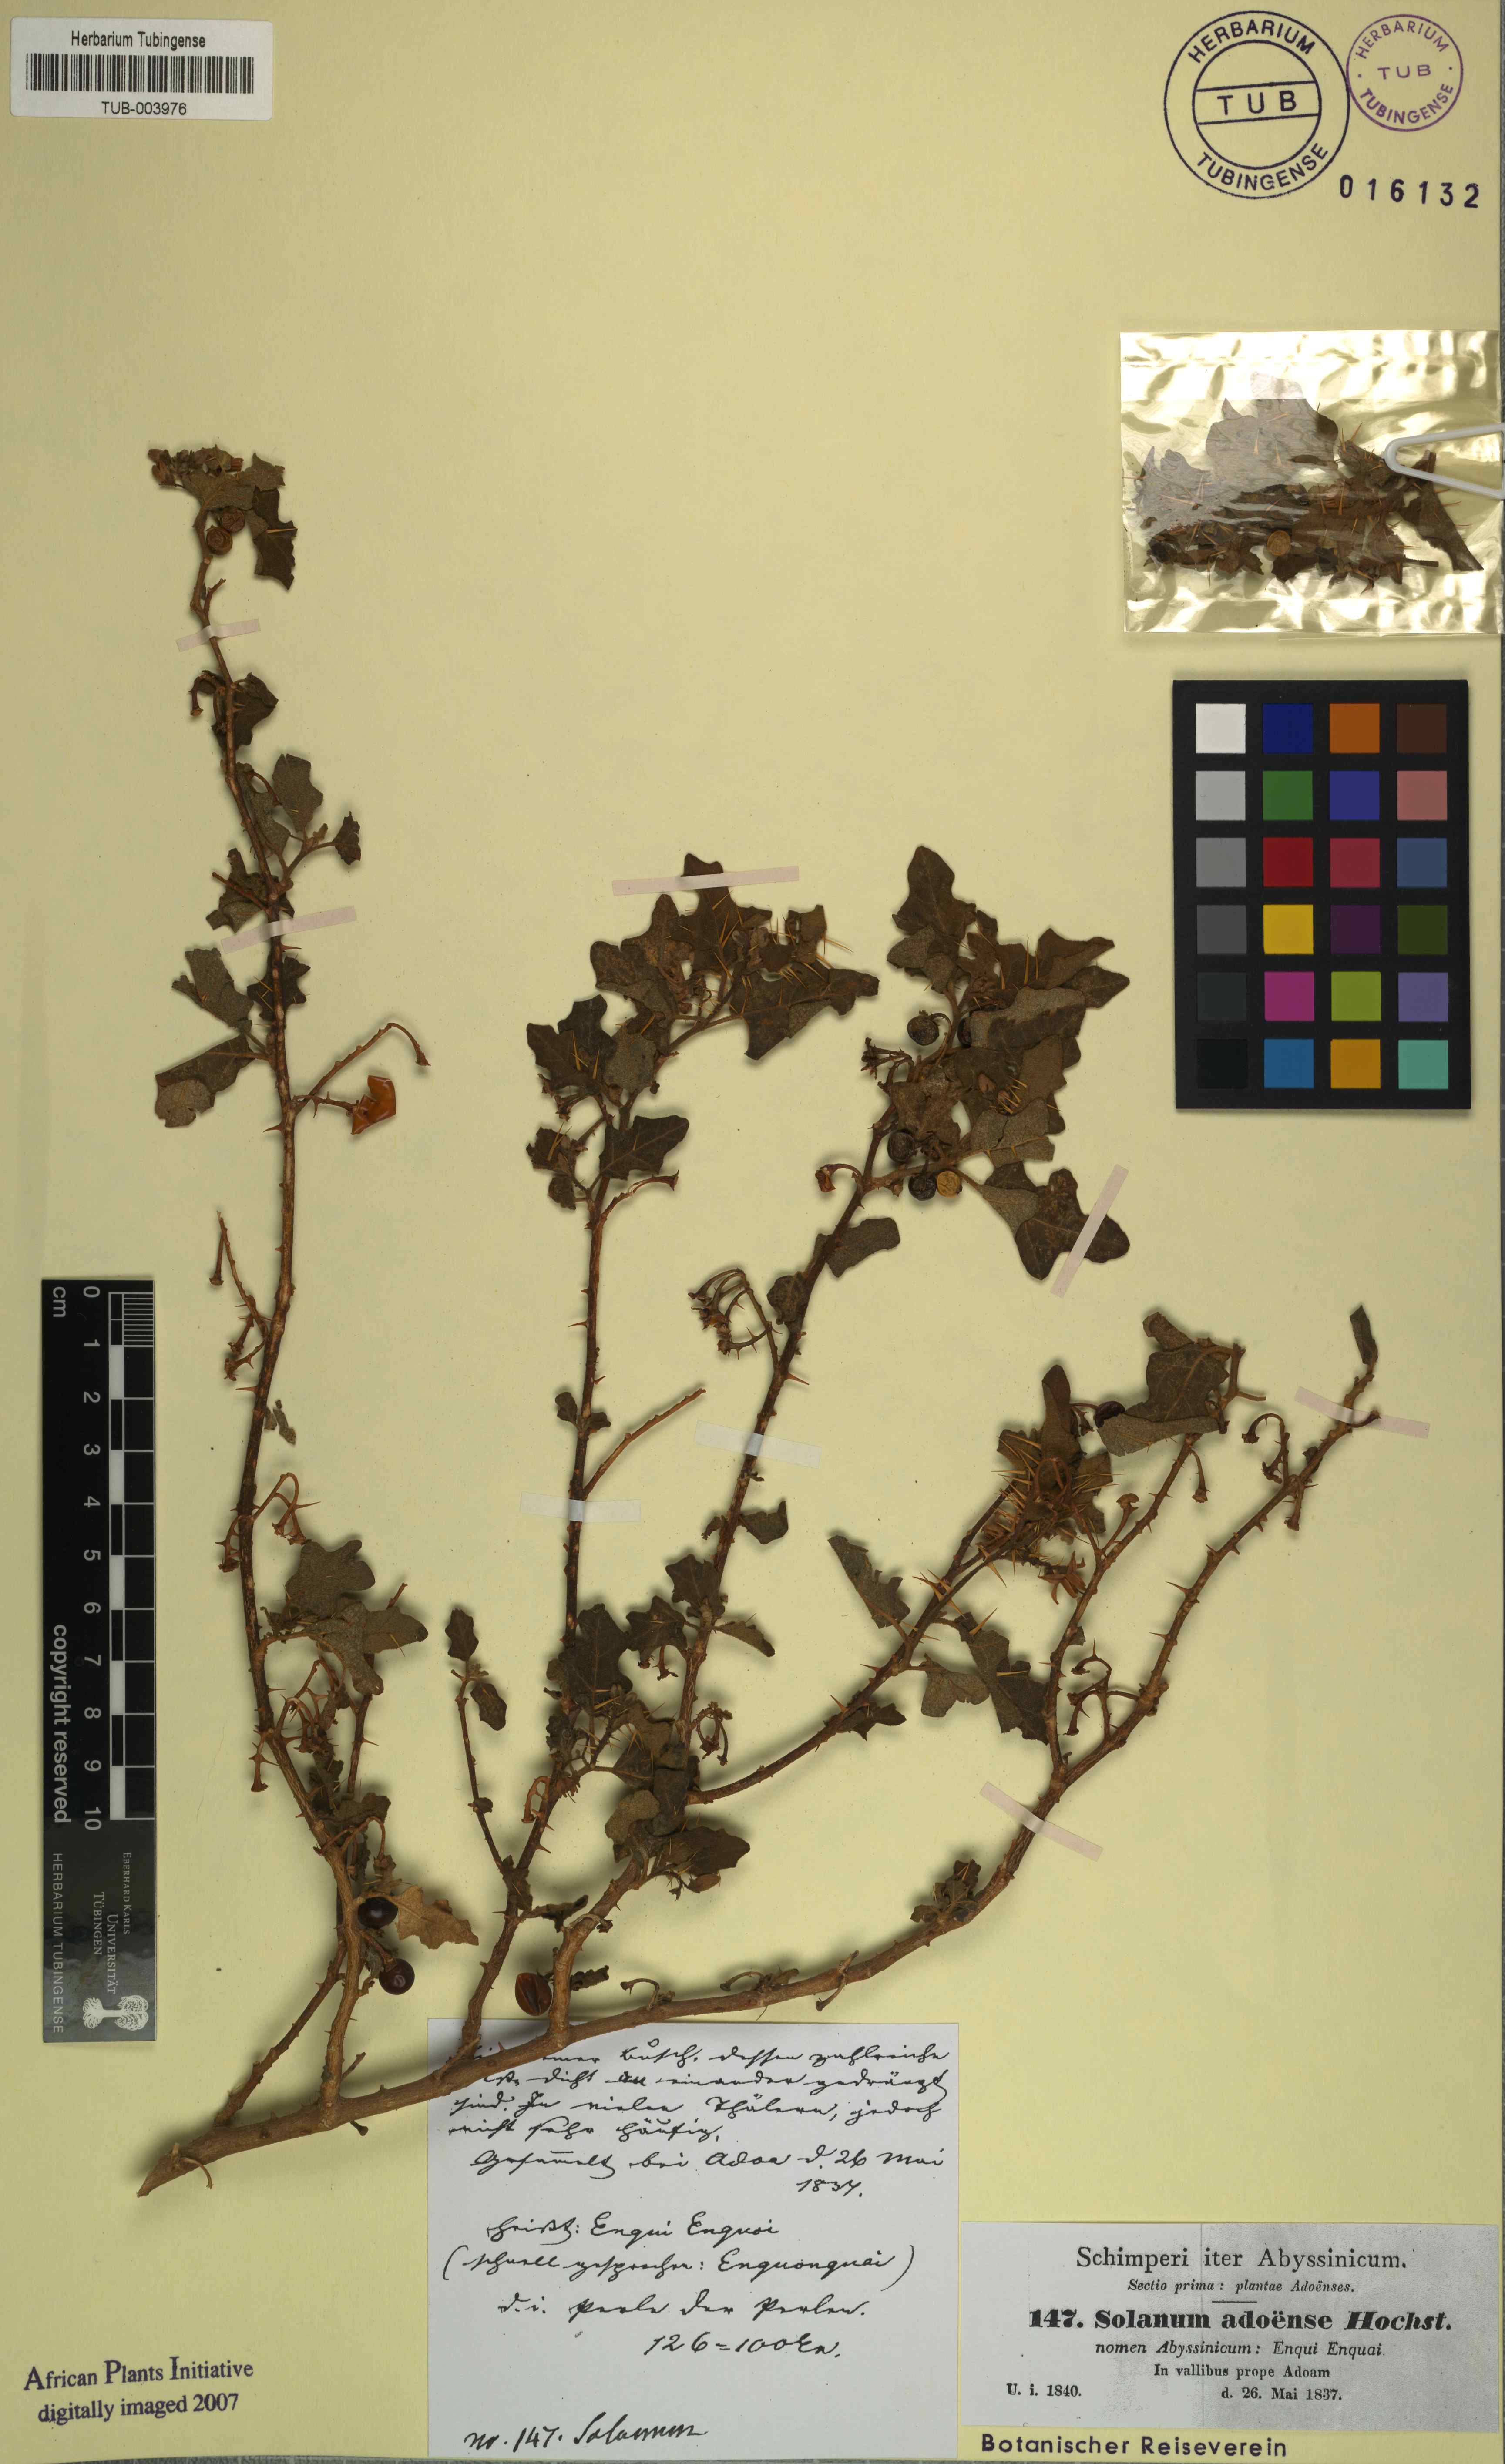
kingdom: Plantae
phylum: Tracheophyta
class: Magnoliopsida
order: Solanales
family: Solanaceae
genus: Solanum
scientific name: Solanum adoense
